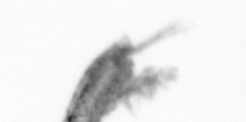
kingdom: Animalia
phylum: Arthropoda
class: Copepoda
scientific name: Copepoda
